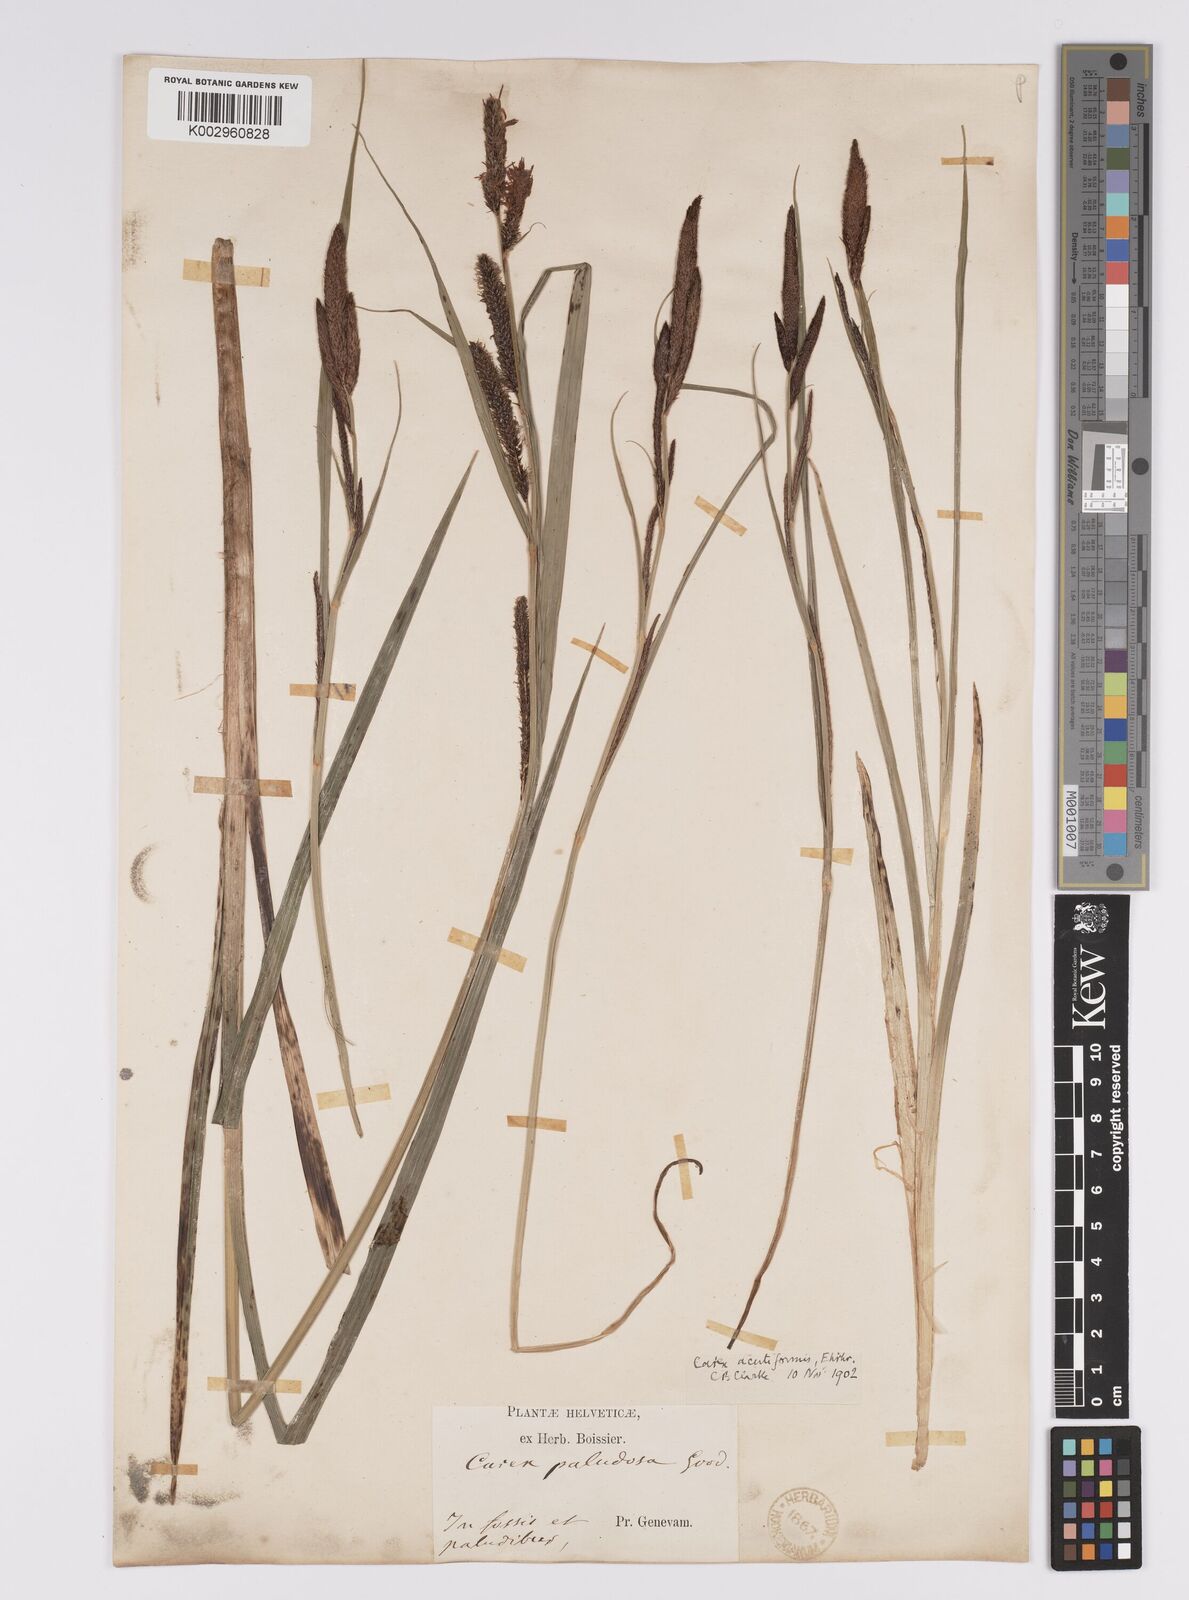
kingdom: Plantae
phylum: Tracheophyta
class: Liliopsida
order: Poales
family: Cyperaceae
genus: Carex
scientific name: Carex acutiformis
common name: Lesser pond-sedge
